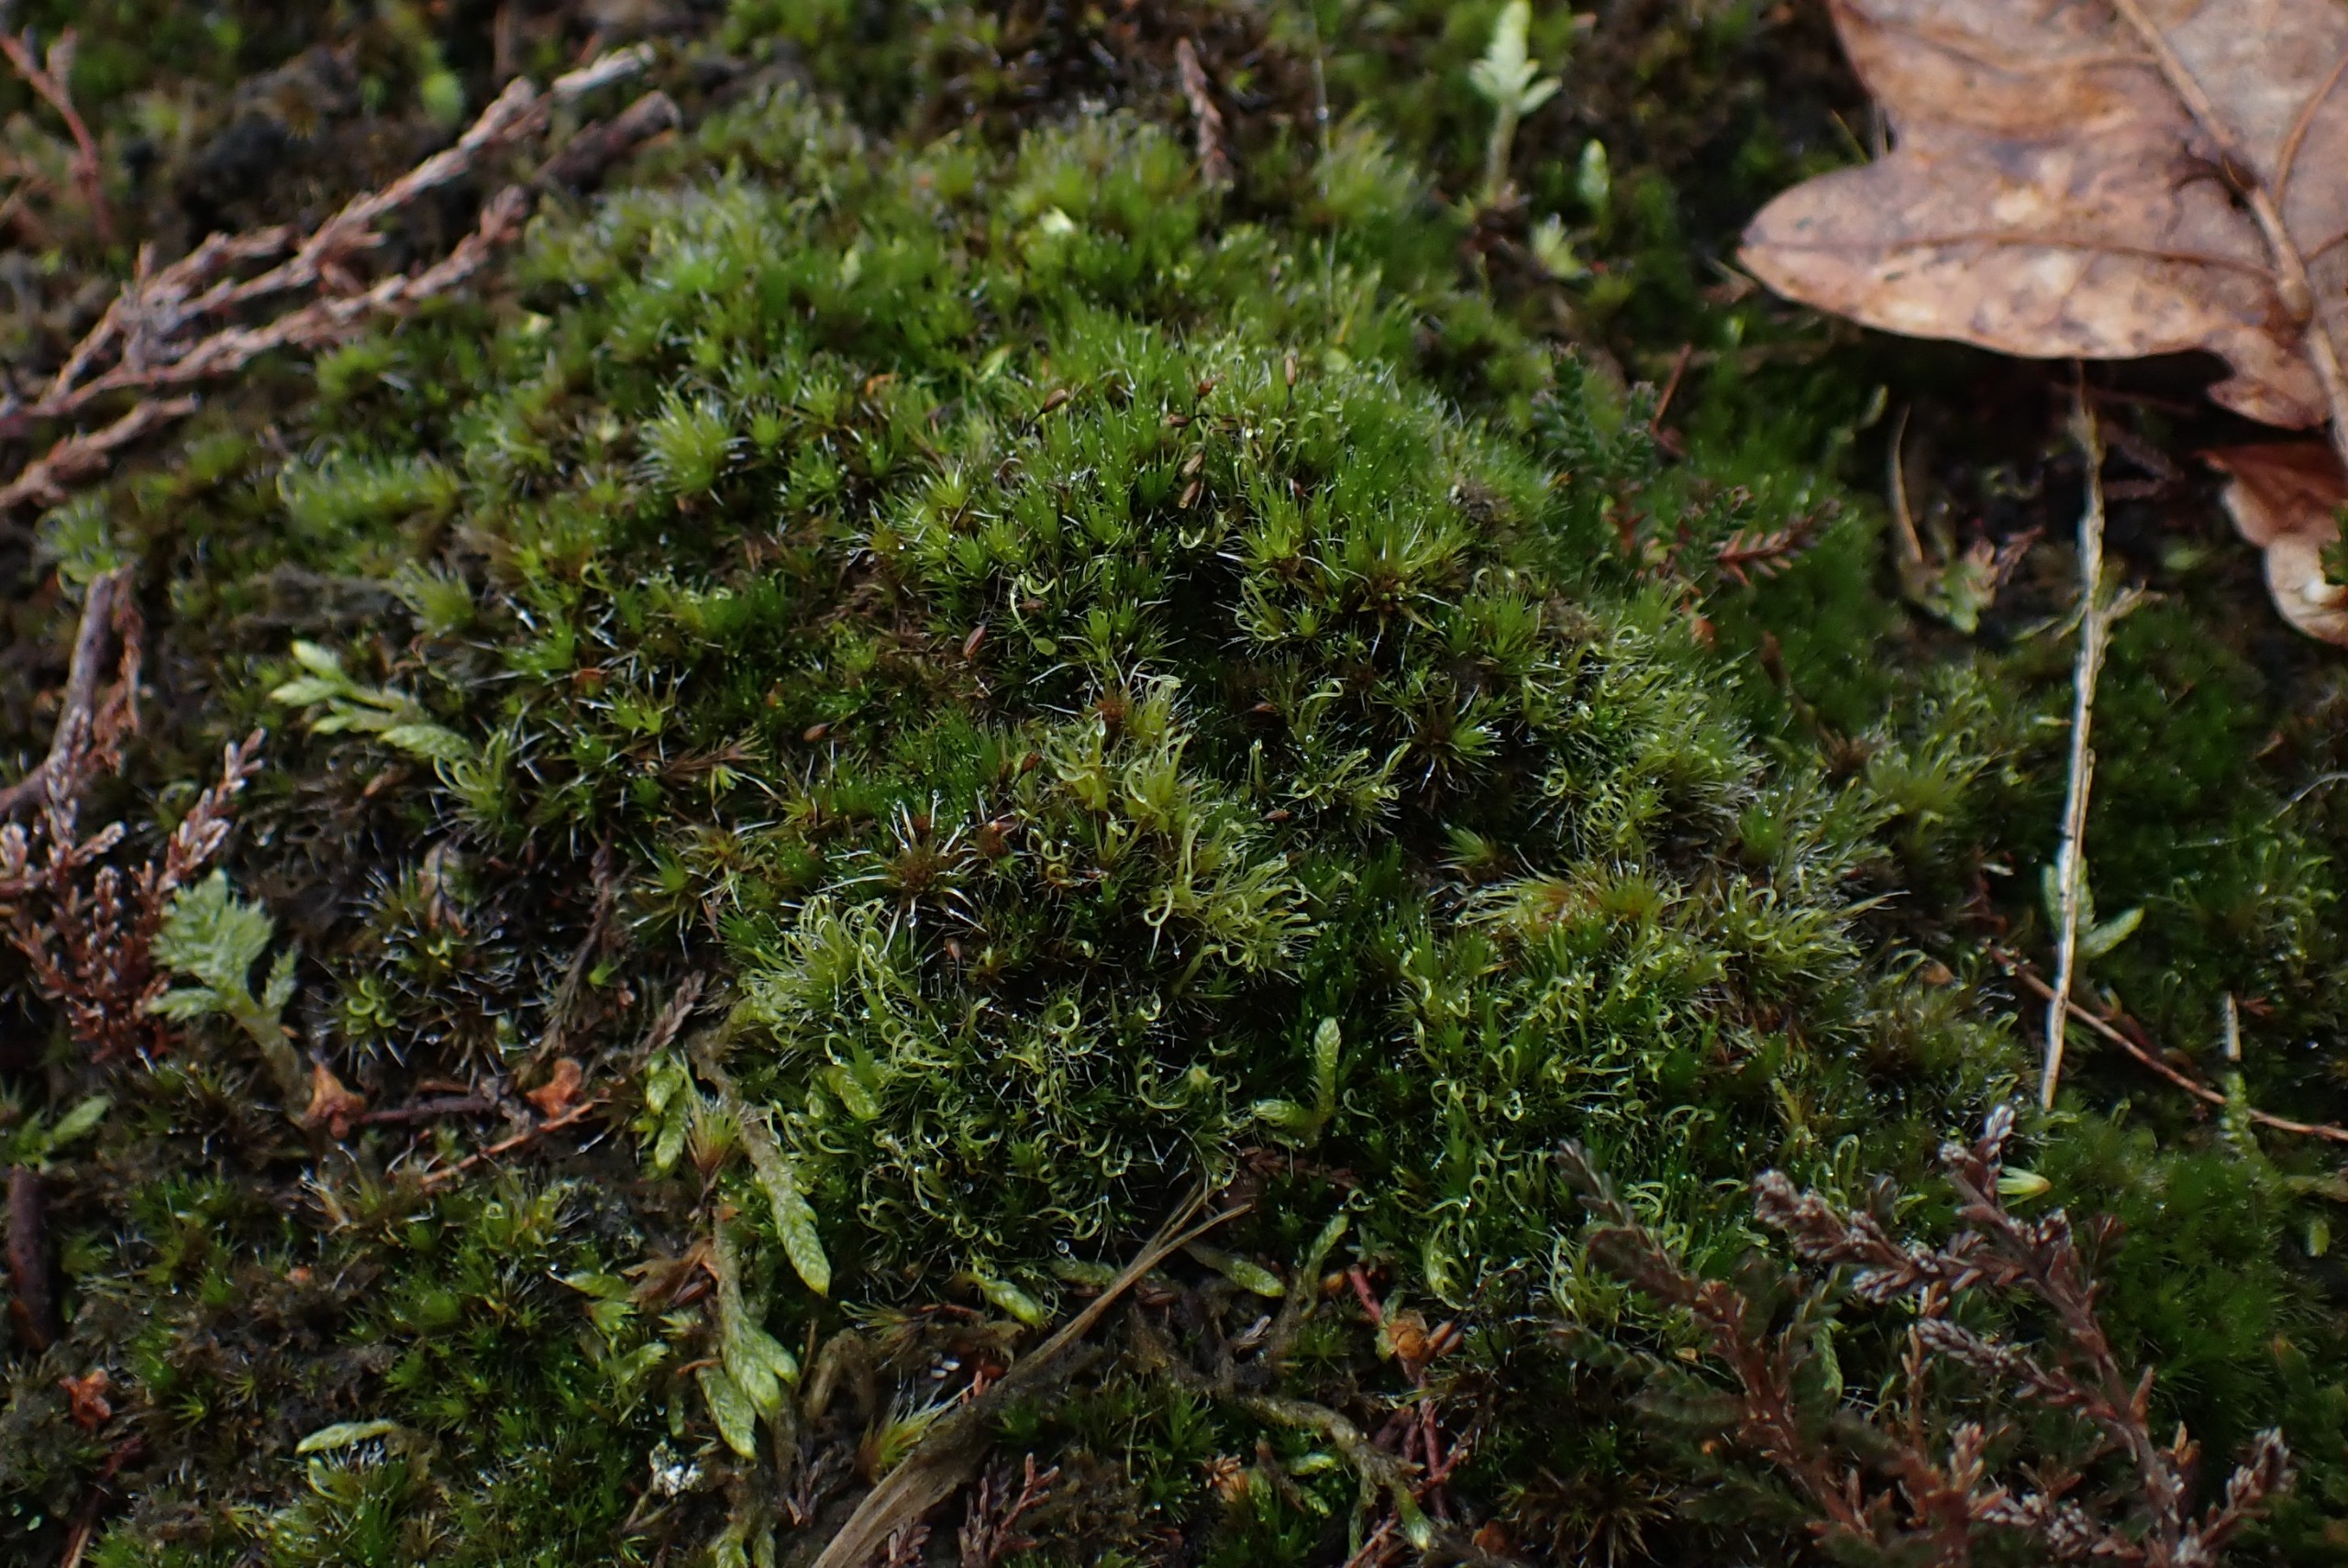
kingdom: Plantae
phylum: Bryophyta
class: Bryopsida
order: Dicranales
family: Leucobryaceae
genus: Campylopus
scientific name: Campylopus introflexus
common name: Stjerne-bredribbe
